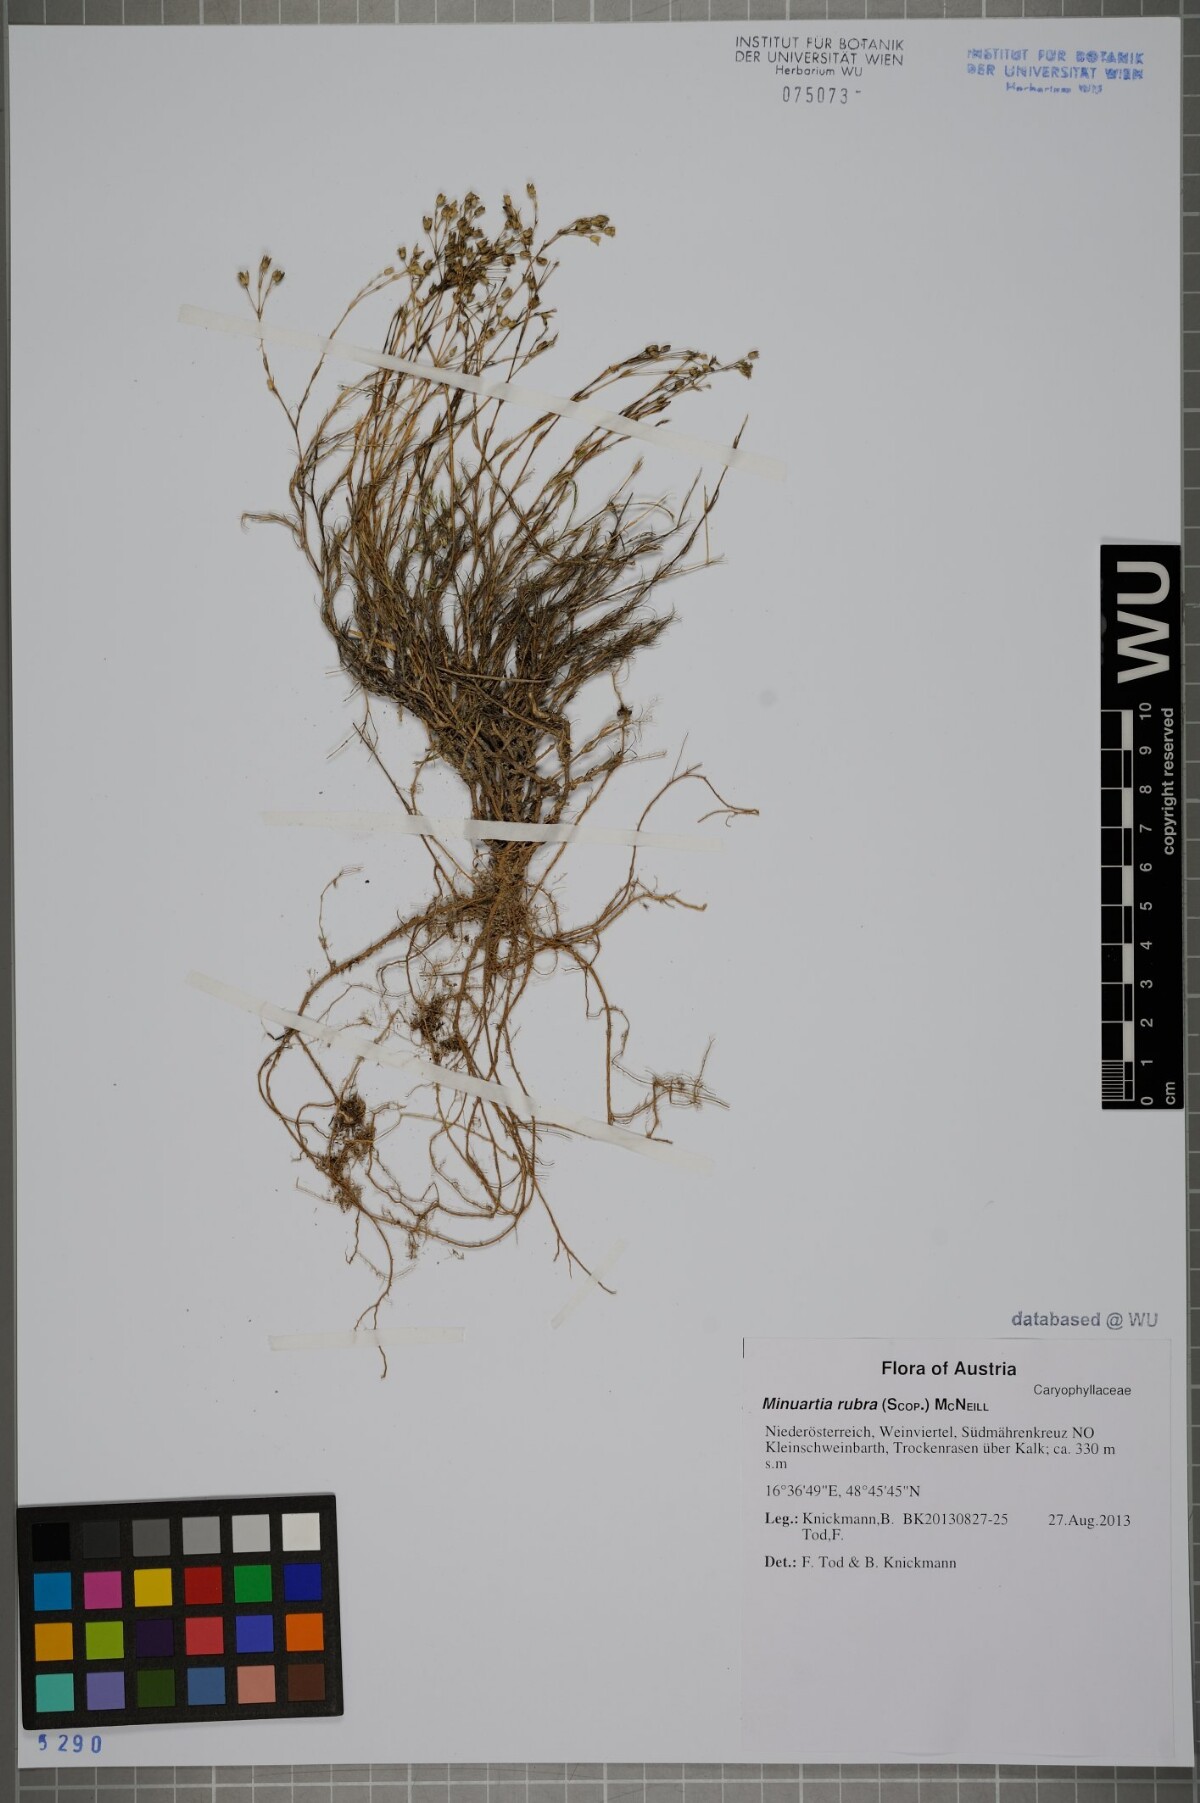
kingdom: Plantae
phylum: Tracheophyta
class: Magnoliopsida
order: Caryophyllales
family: Caryophyllaceae
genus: Minuartia
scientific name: Minuartia mucronata
